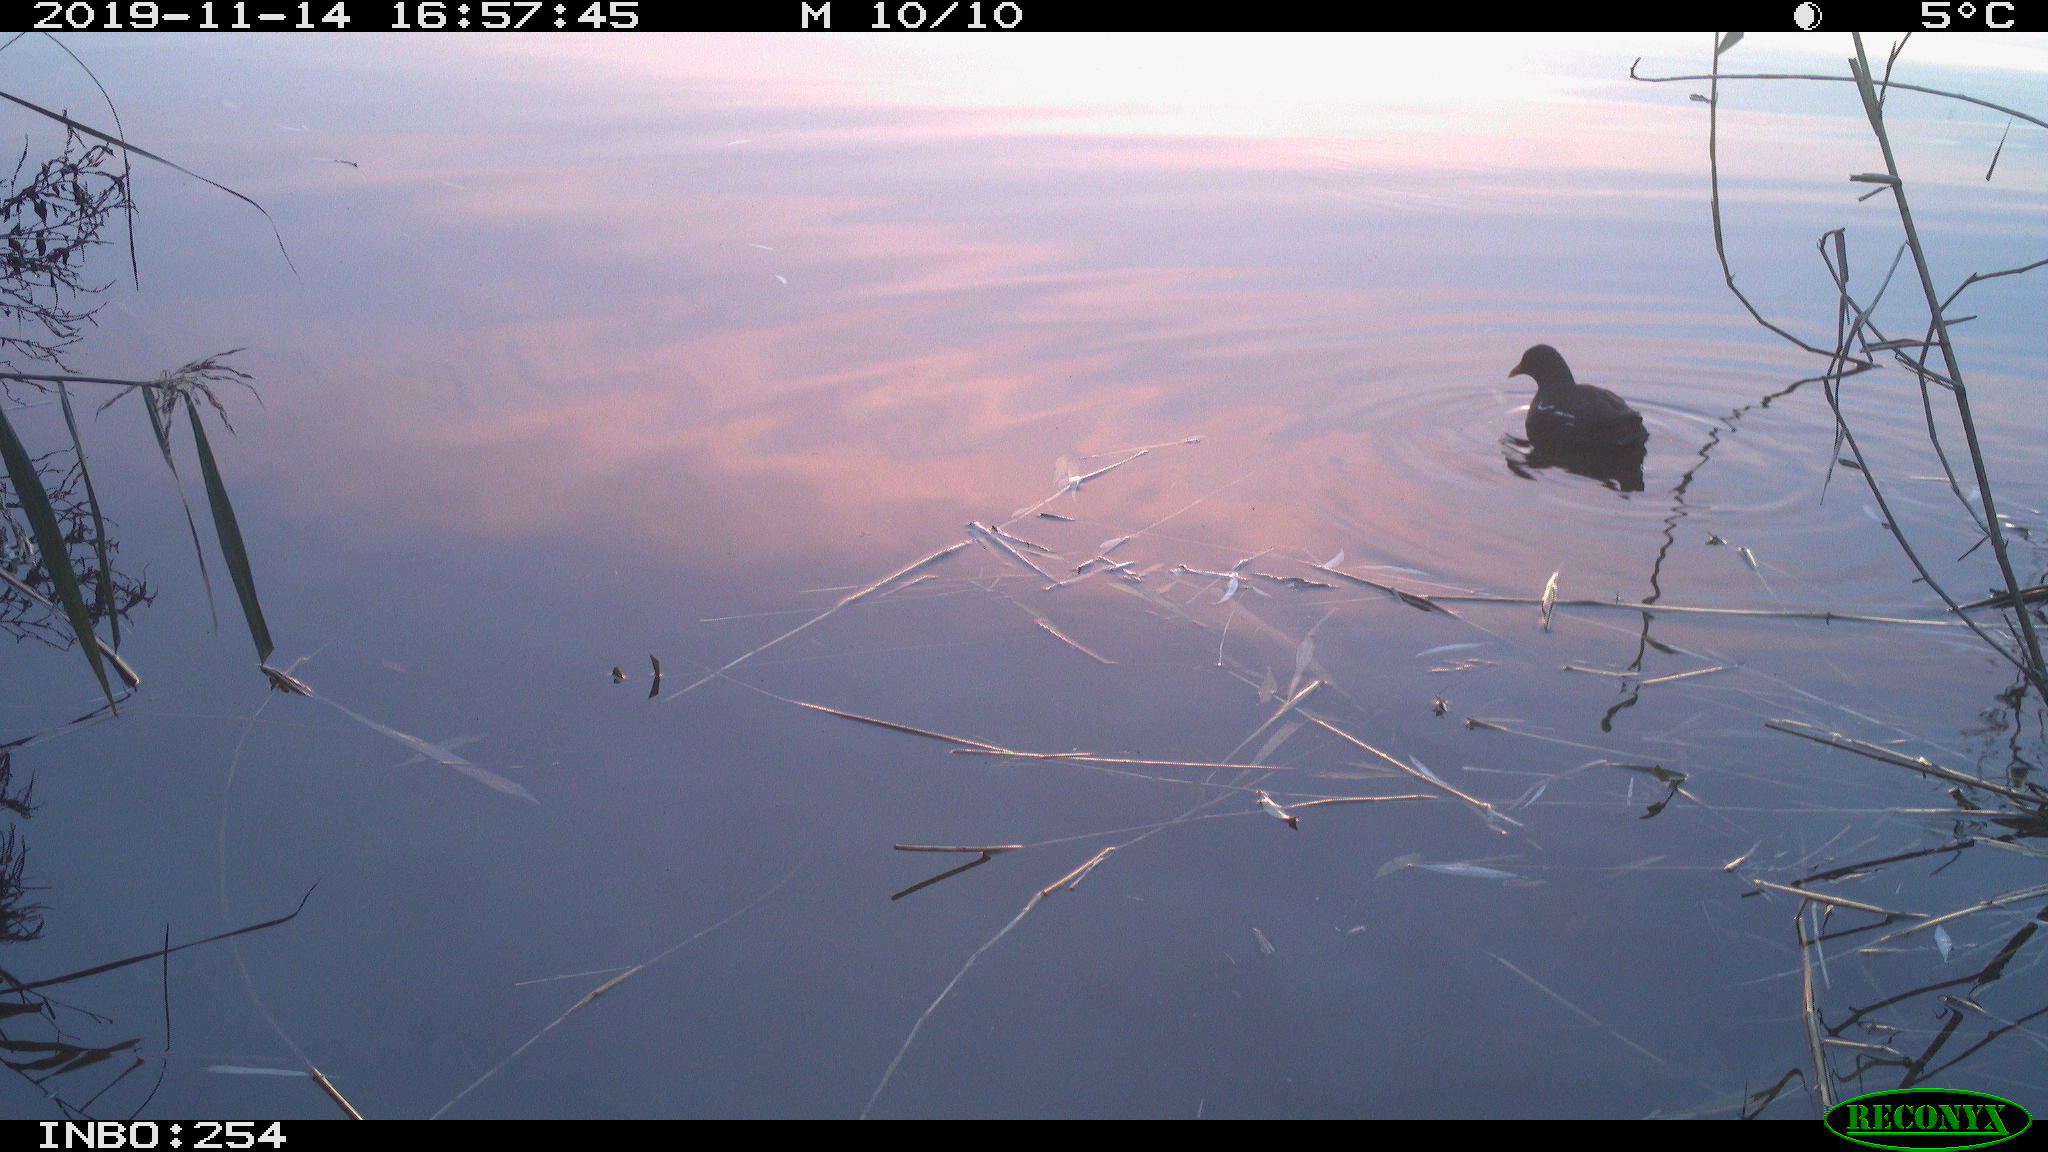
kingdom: Animalia
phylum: Chordata
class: Aves
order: Gruiformes
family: Rallidae
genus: Gallinula
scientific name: Gallinula chloropus
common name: Common moorhen
